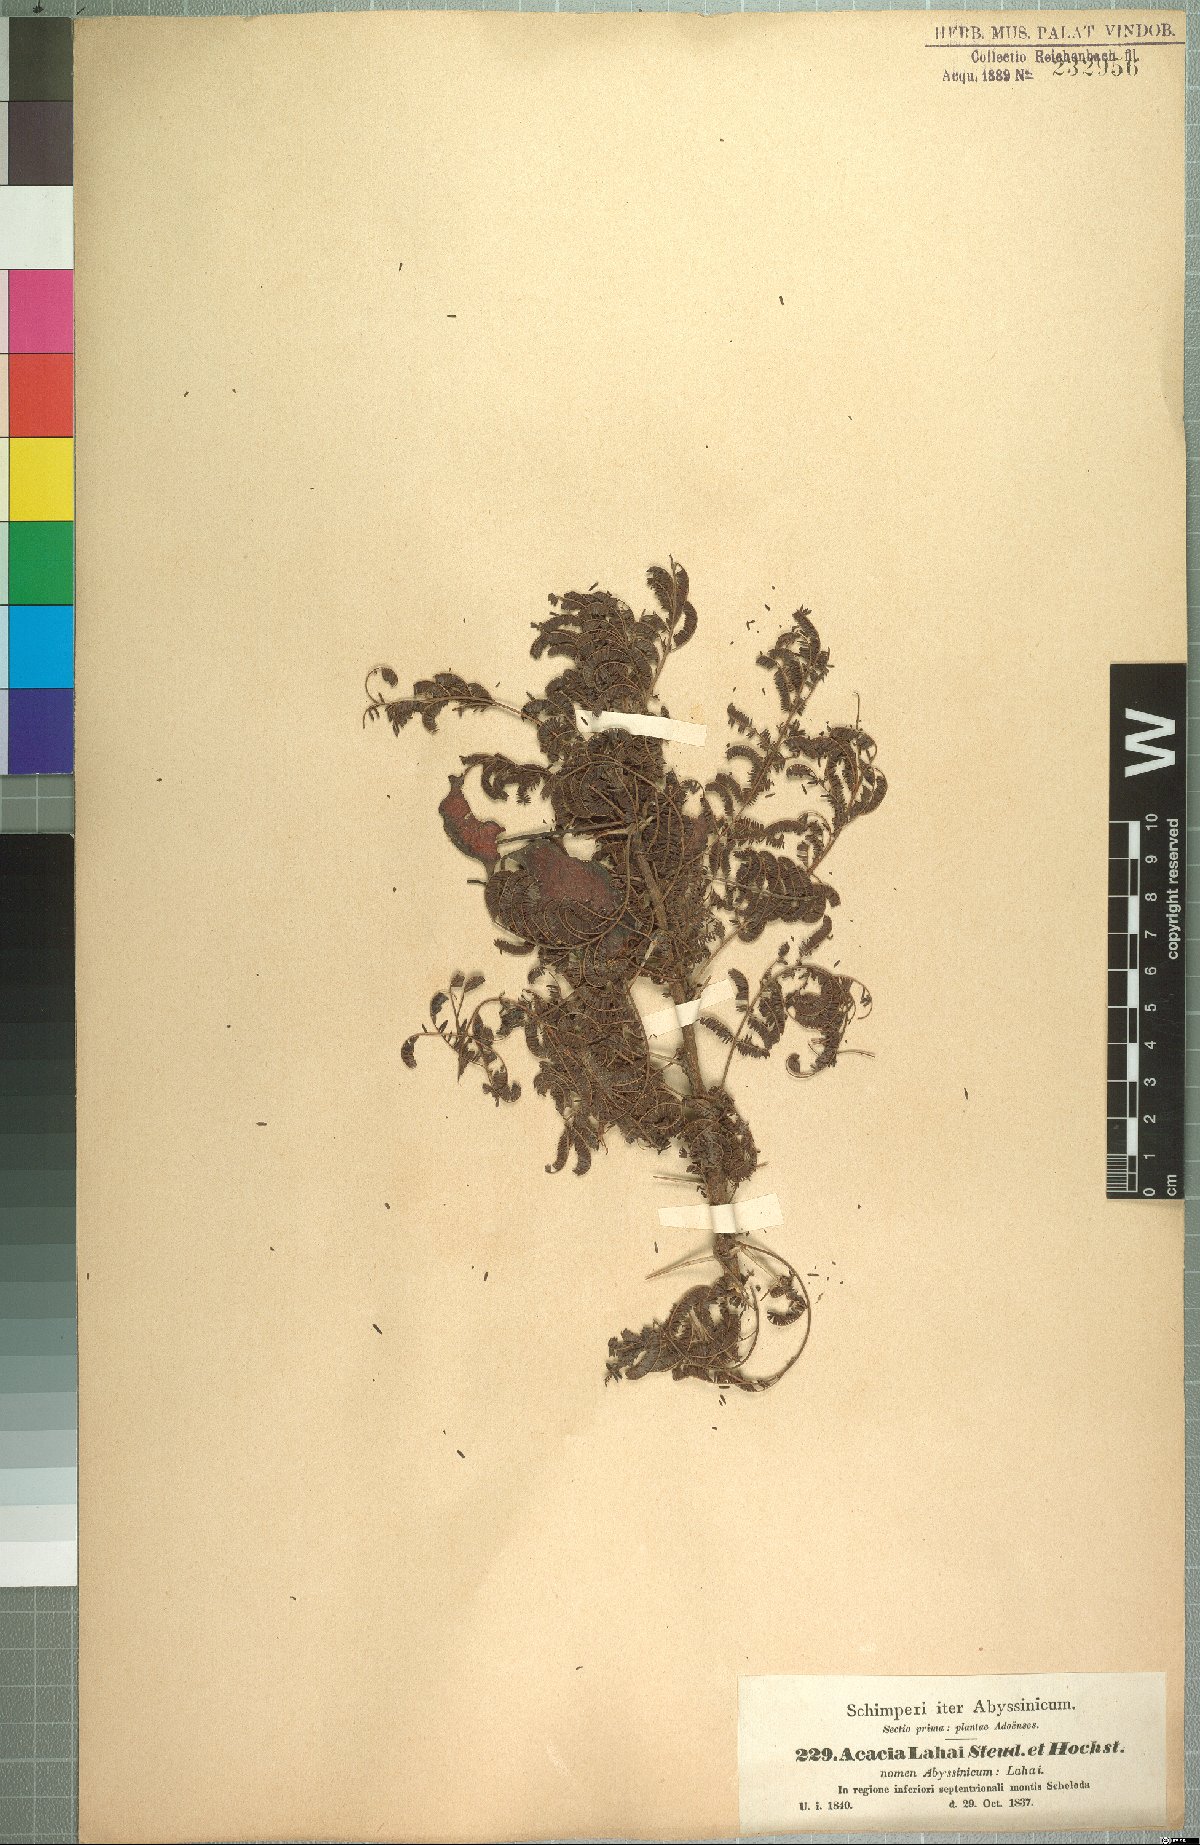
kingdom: Plantae
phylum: Tracheophyta
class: Magnoliopsida
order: Fabales
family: Fabaceae
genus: Vachellia
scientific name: Vachellia lahai
